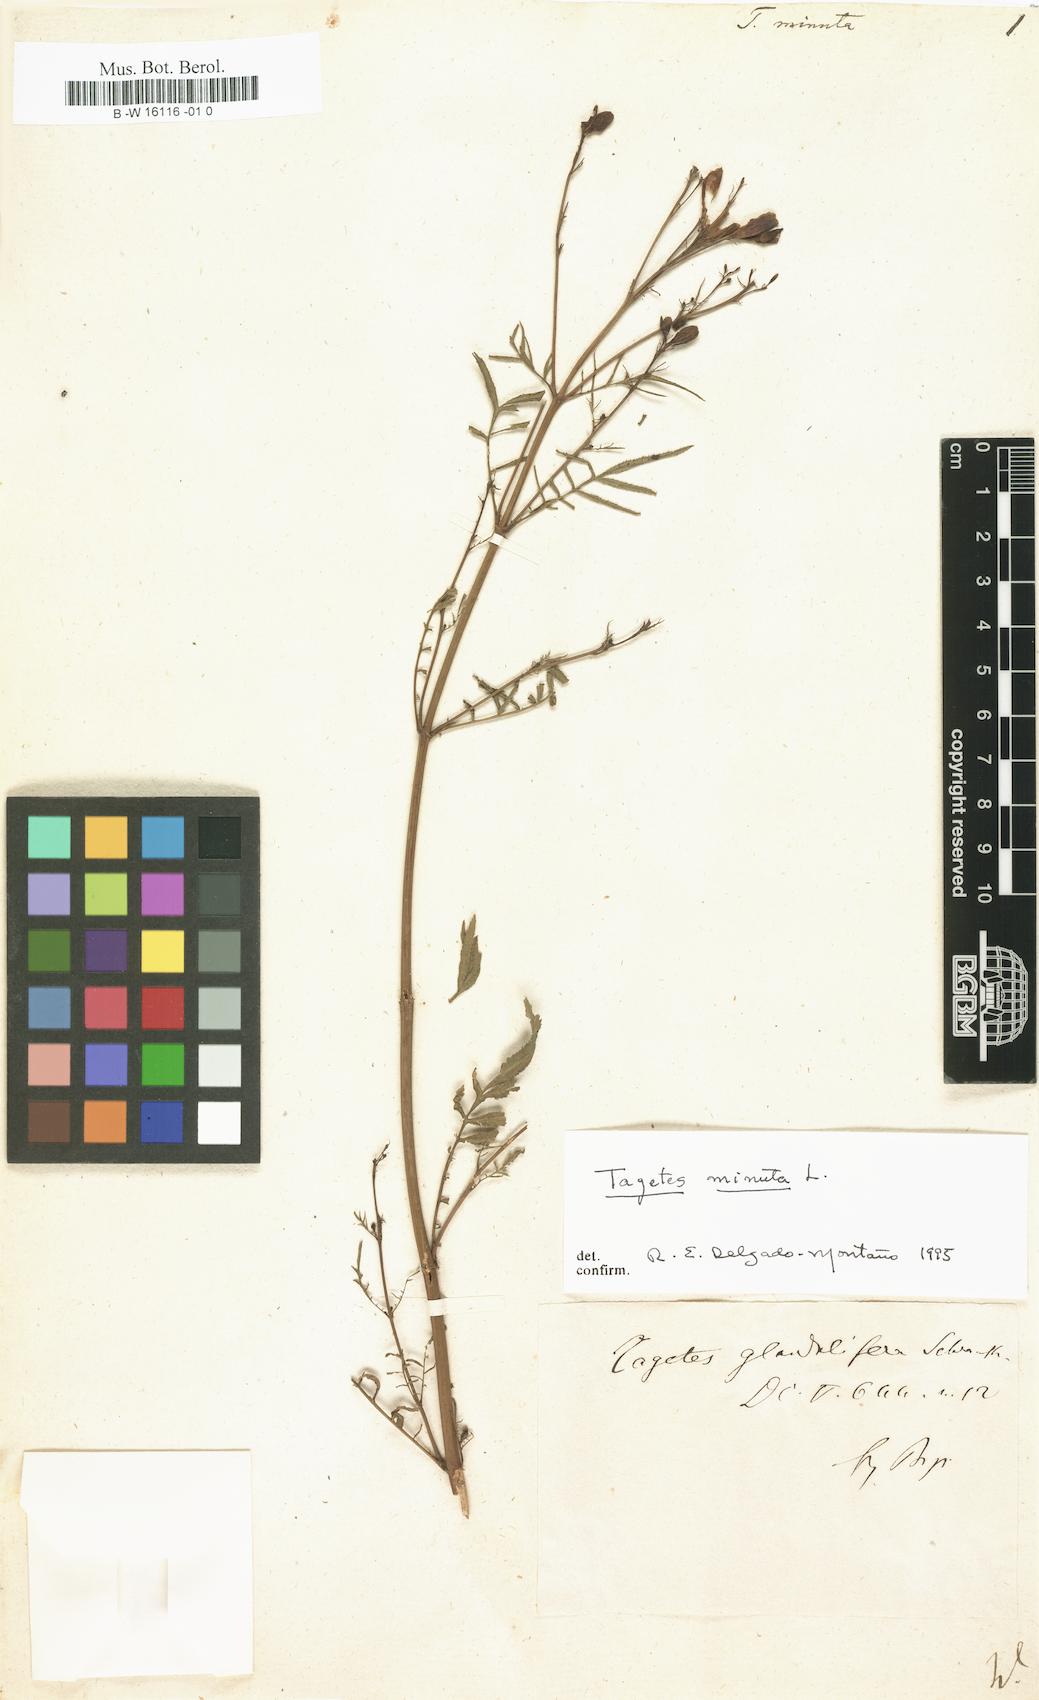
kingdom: Plantae
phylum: Tracheophyta
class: Magnoliopsida
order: Asterales
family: Asteraceae
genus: Tagetes
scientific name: Tagetes minuta
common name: Muster john henry
